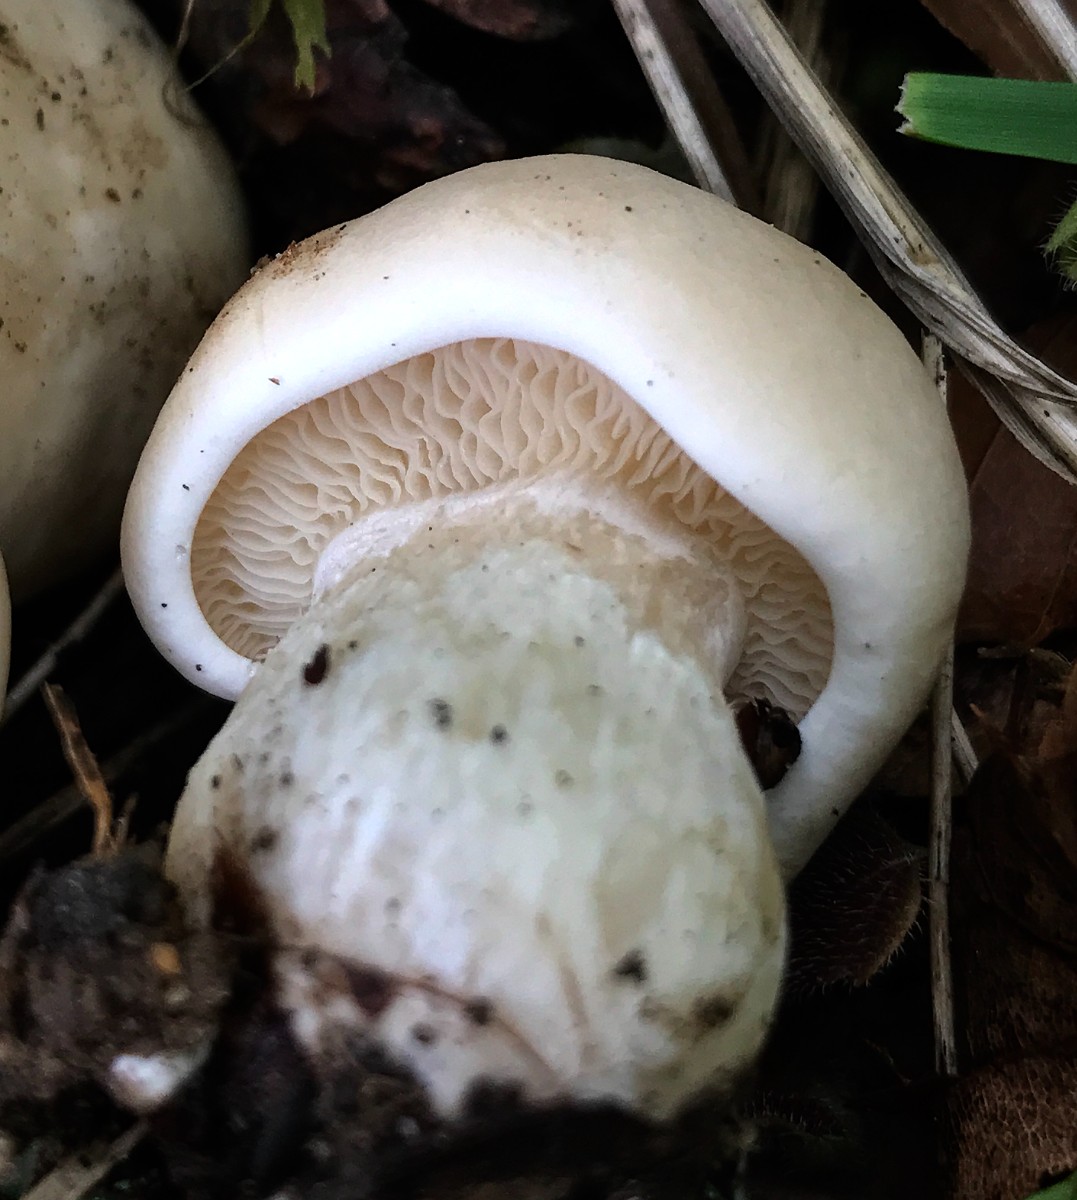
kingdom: Fungi
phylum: Basidiomycota
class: Agaricomycetes
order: Agaricales
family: Lyophyllaceae
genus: Calocybe
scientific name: Calocybe gambosa
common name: vårmusseron
